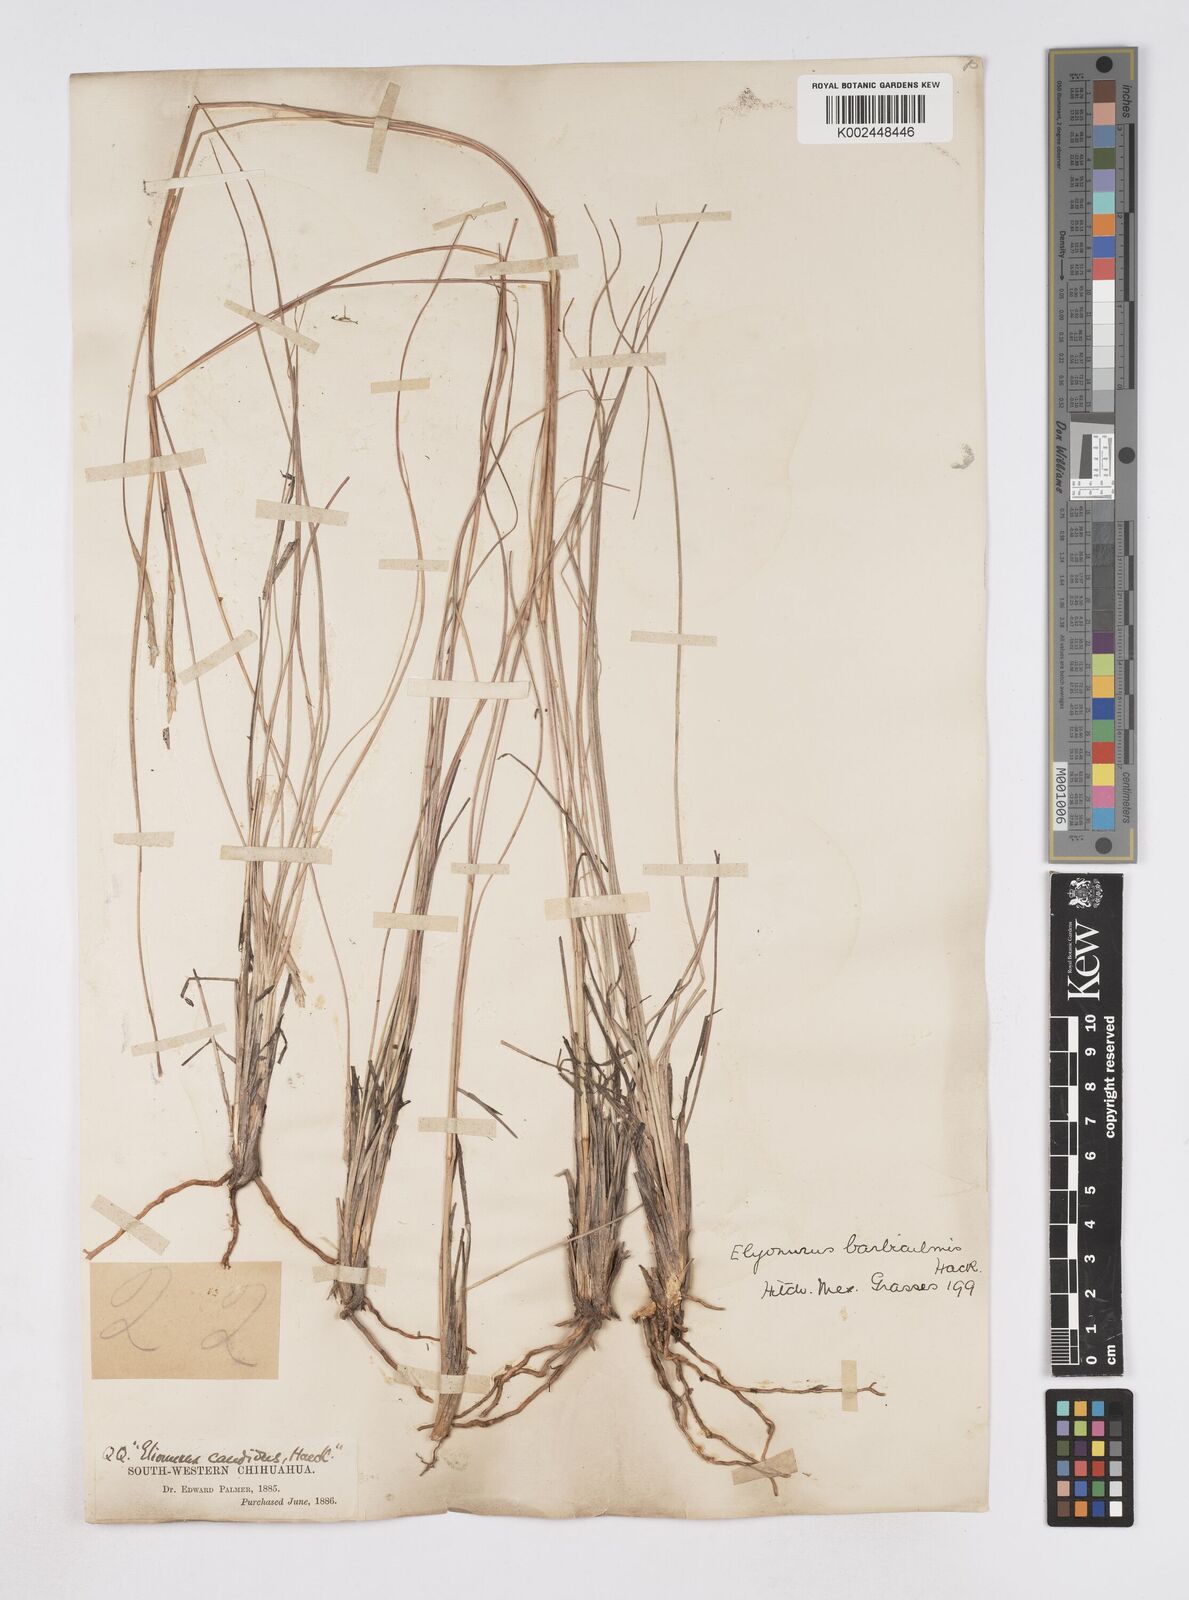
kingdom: Plantae
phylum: Tracheophyta
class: Liliopsida
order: Poales
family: Poaceae
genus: Elionurus
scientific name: Elionurus barbiculmis
